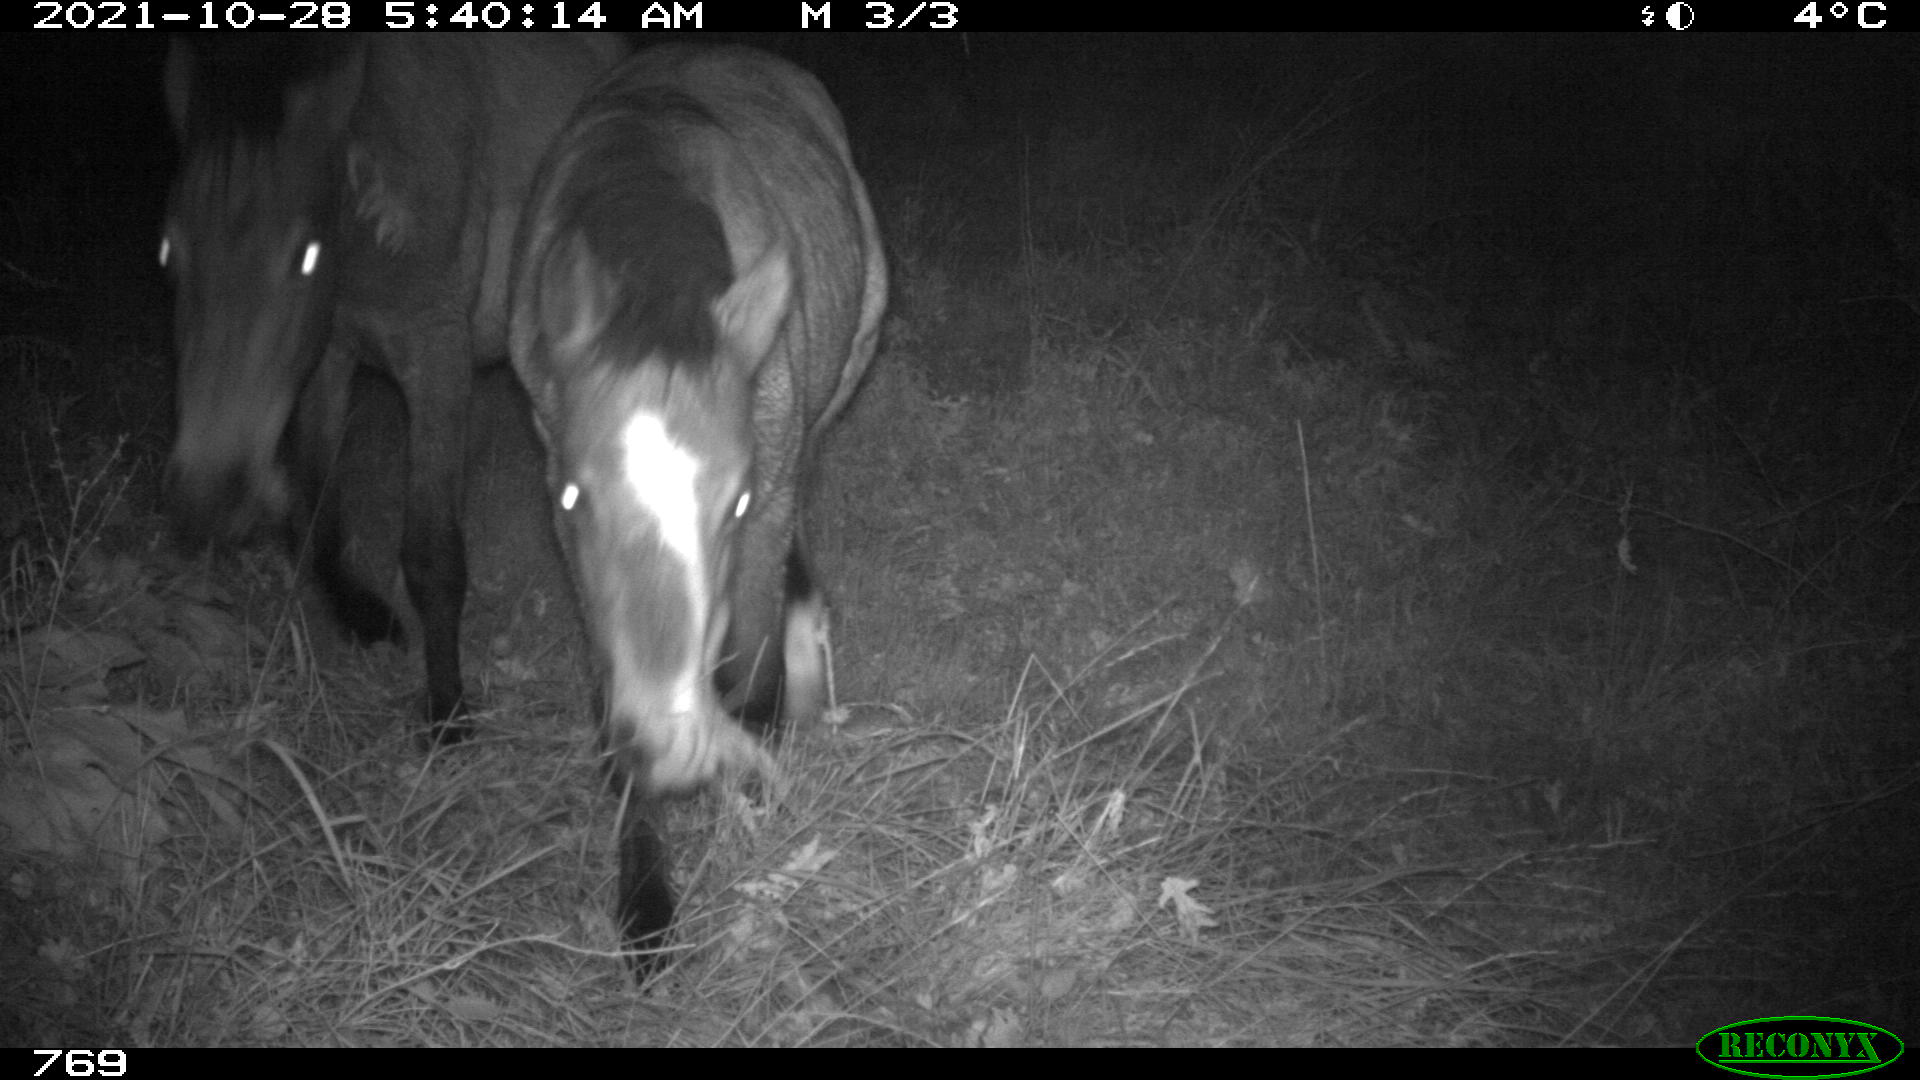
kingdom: Animalia
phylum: Chordata
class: Mammalia
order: Perissodactyla
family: Equidae
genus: Equus
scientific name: Equus caballus
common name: Horse
